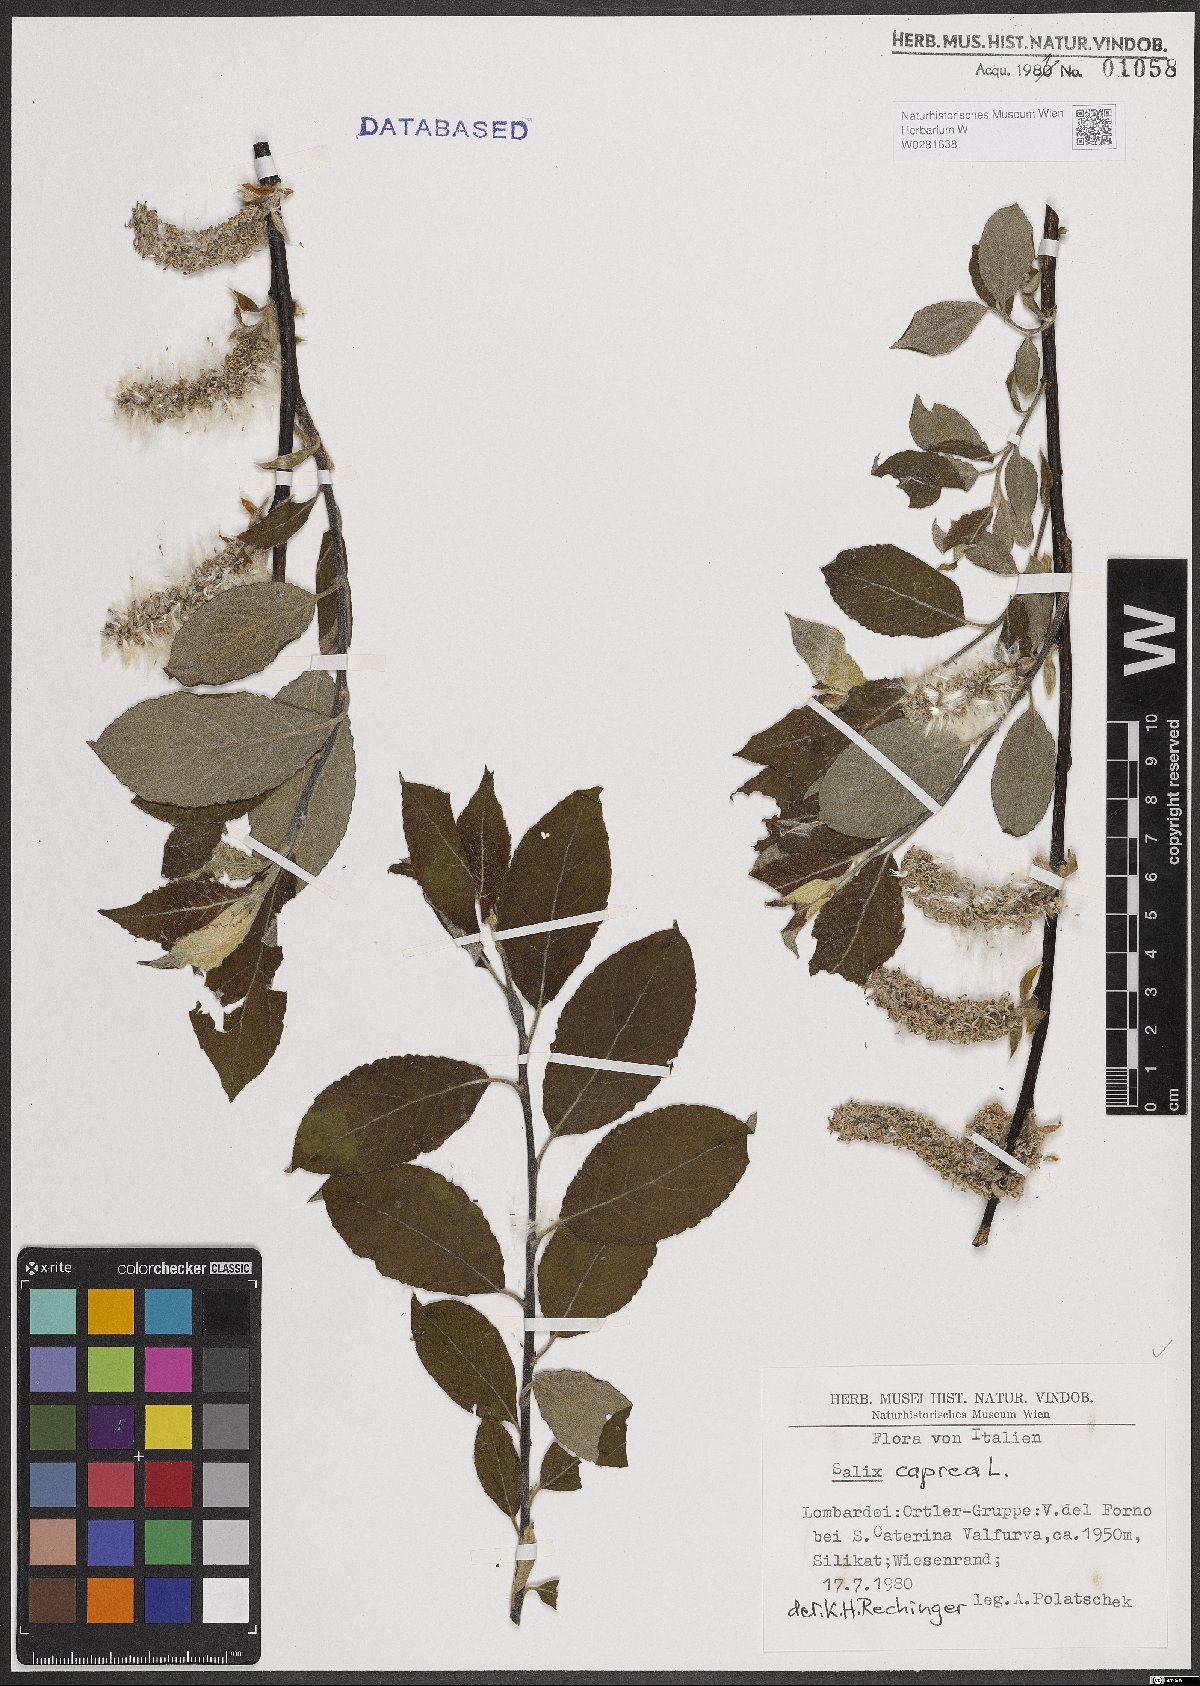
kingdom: Plantae
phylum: Tracheophyta
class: Magnoliopsida
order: Malpighiales
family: Salicaceae
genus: Salix
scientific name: Salix caprea
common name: Goat willow
